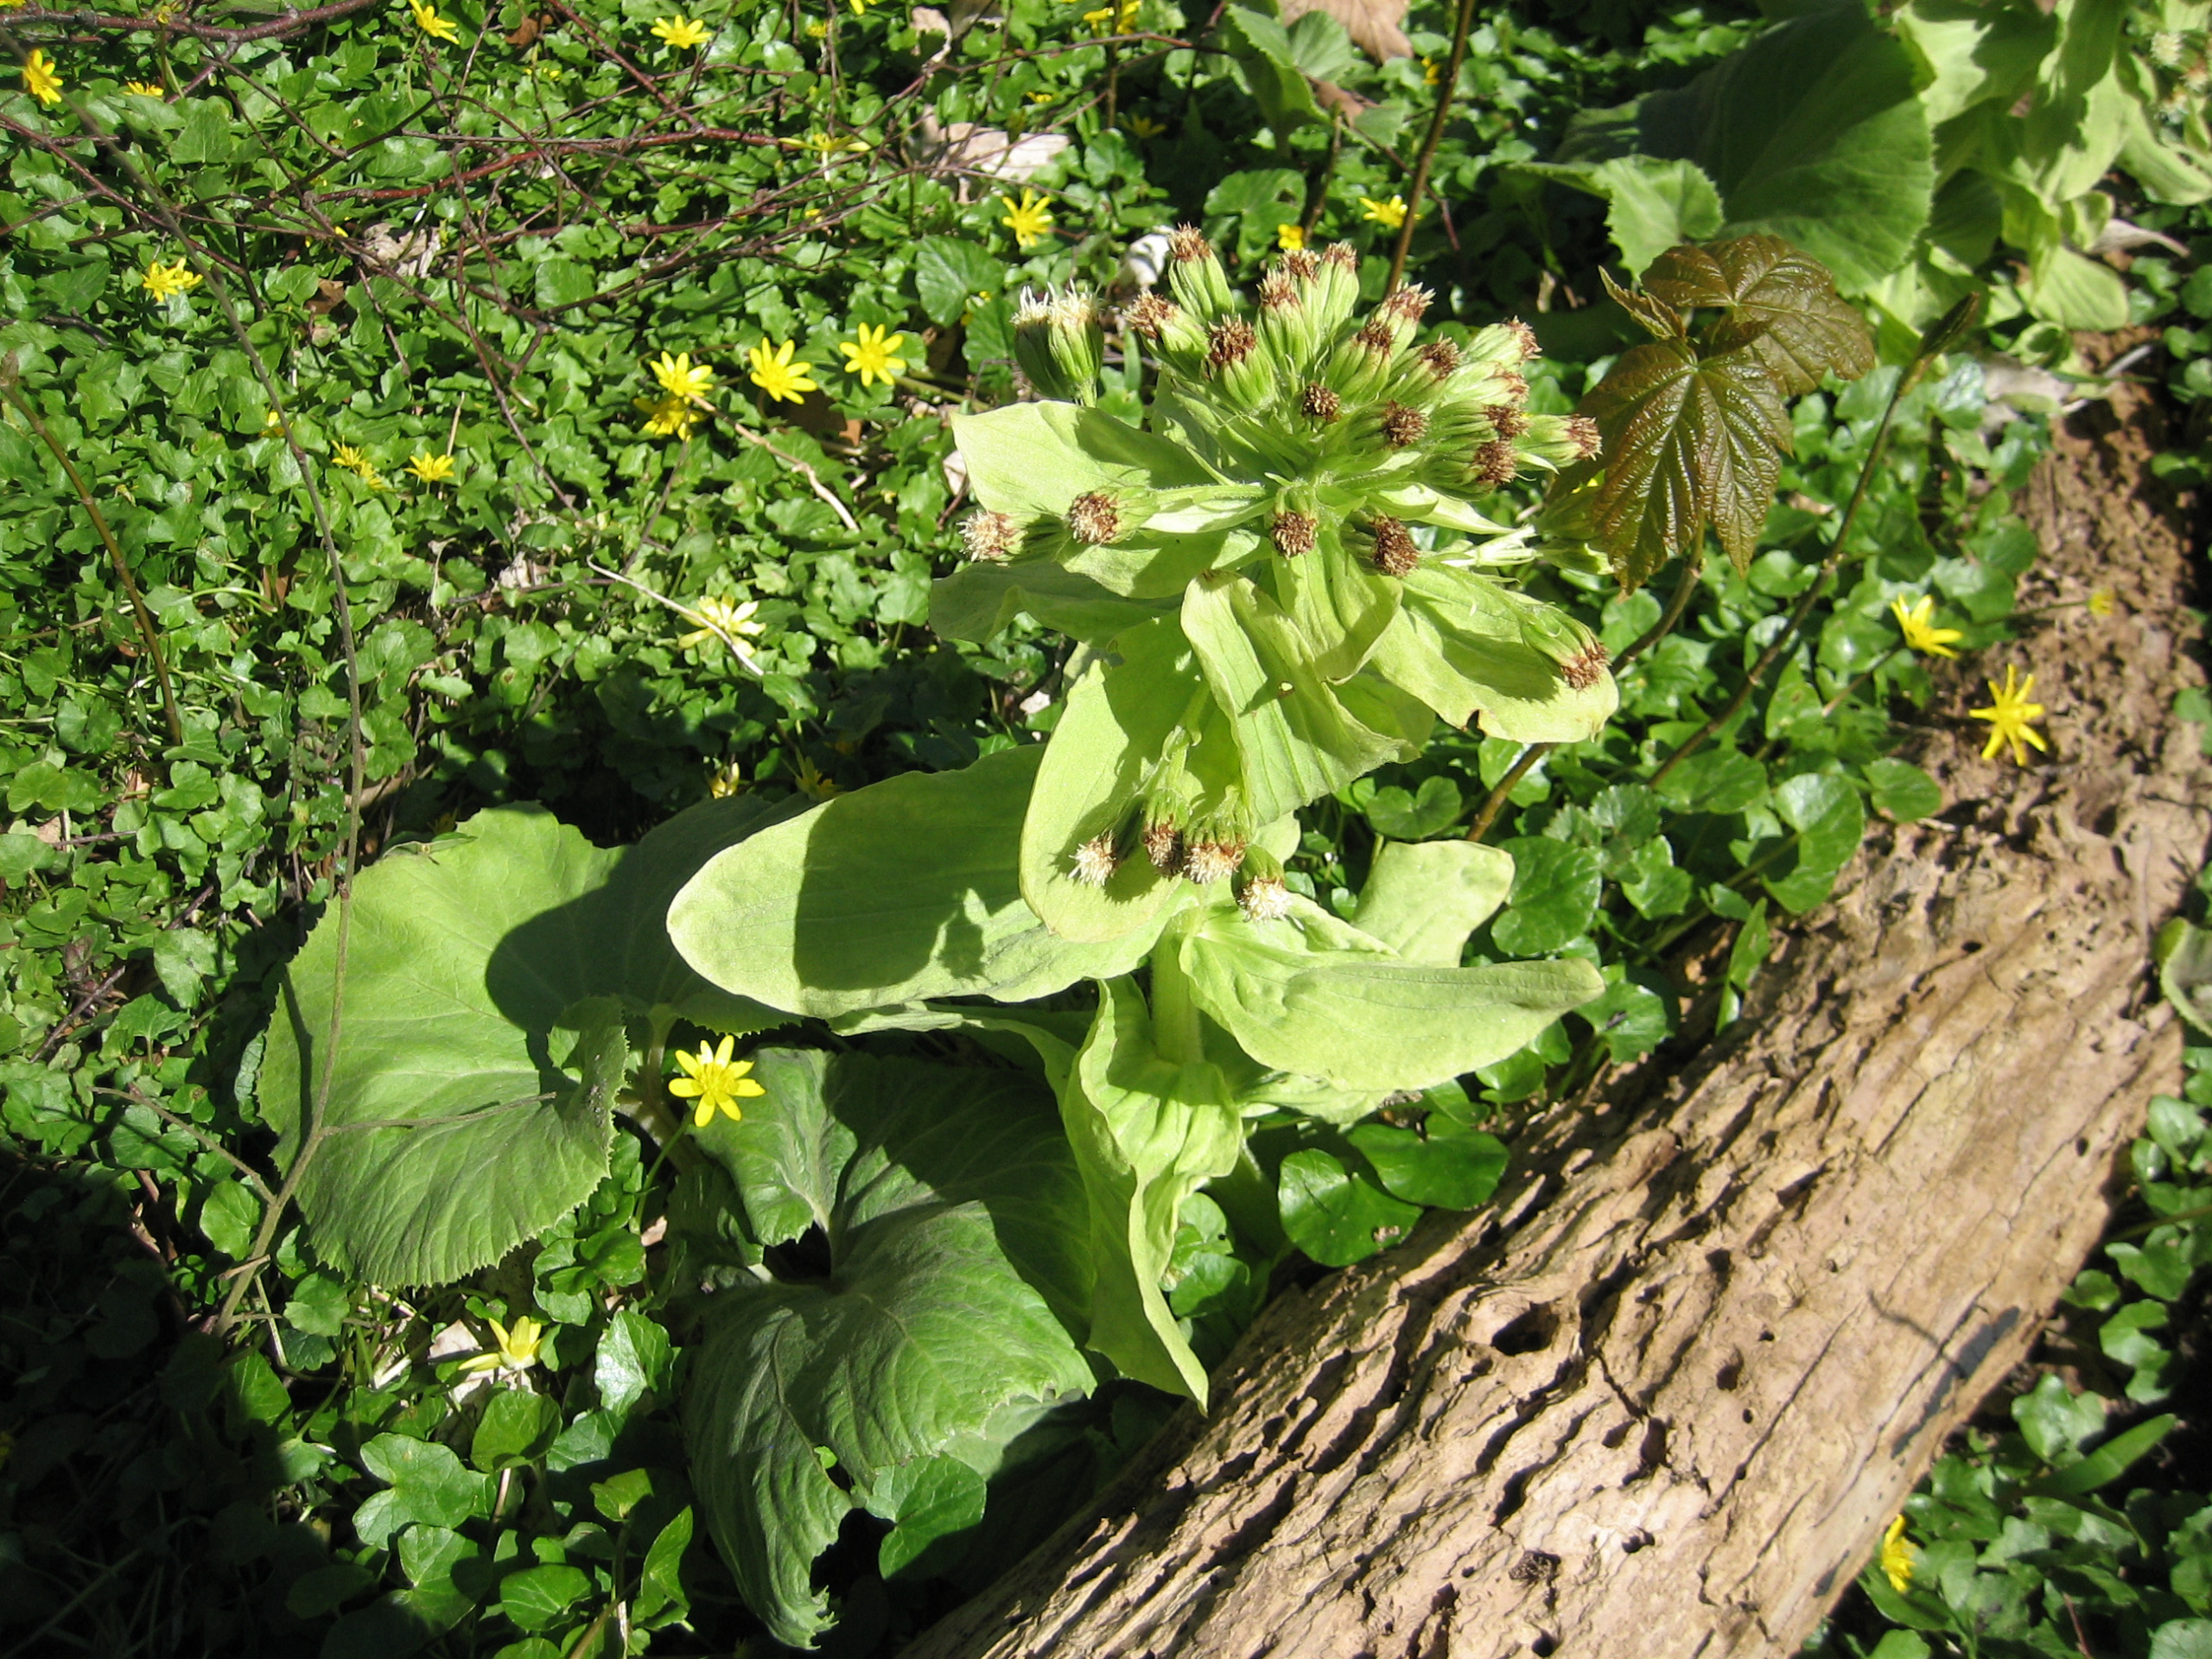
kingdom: Plantae
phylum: Tracheophyta
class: Magnoliopsida
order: Asterales
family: Asteraceae
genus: Petasites
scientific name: Petasites japonicus
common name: Japansk hestehov
